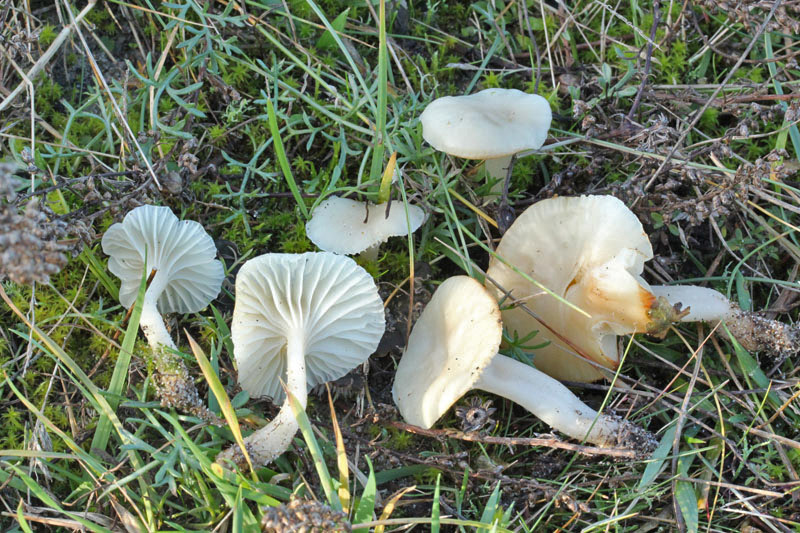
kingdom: Fungi
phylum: Basidiomycota
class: Agaricomycetes
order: Agaricales
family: Hygrophoraceae
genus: Cuphophyllus
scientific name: Cuphophyllus virgineus
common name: snehvid vokshat
